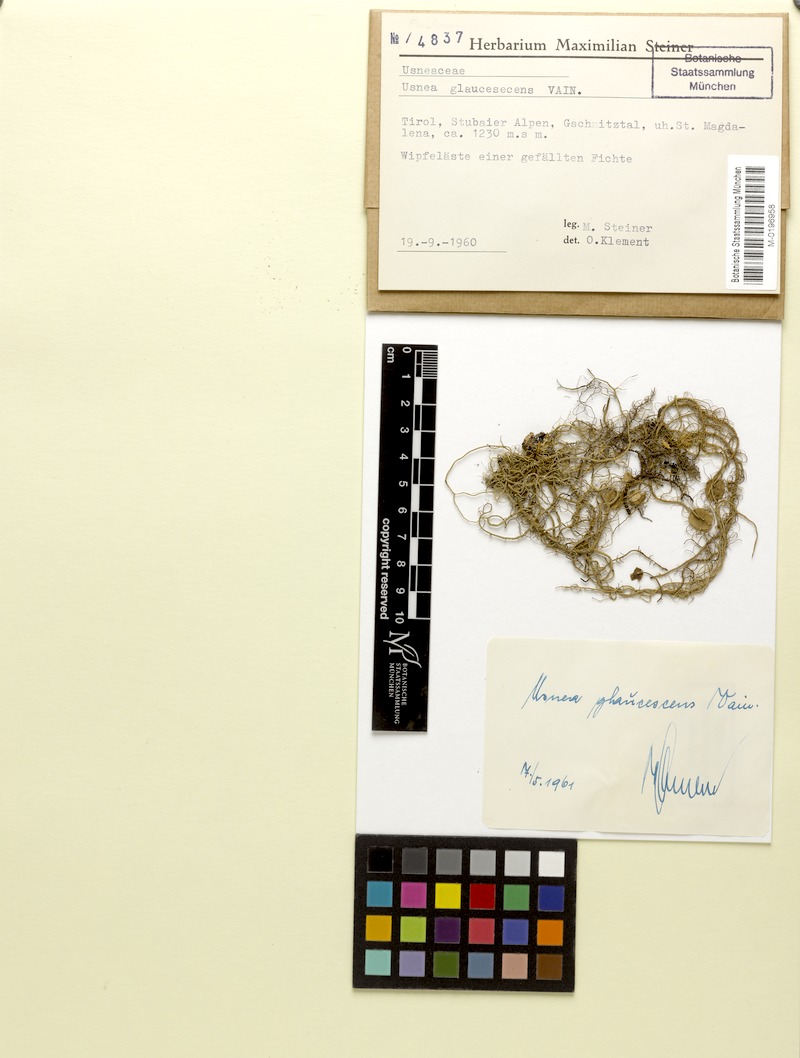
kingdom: Fungi
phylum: Ascomycota
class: Lecanoromycetes
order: Lecanorales
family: Parmeliaceae
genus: Usnea
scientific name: Usnea hirta
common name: Bristly beard lichen
